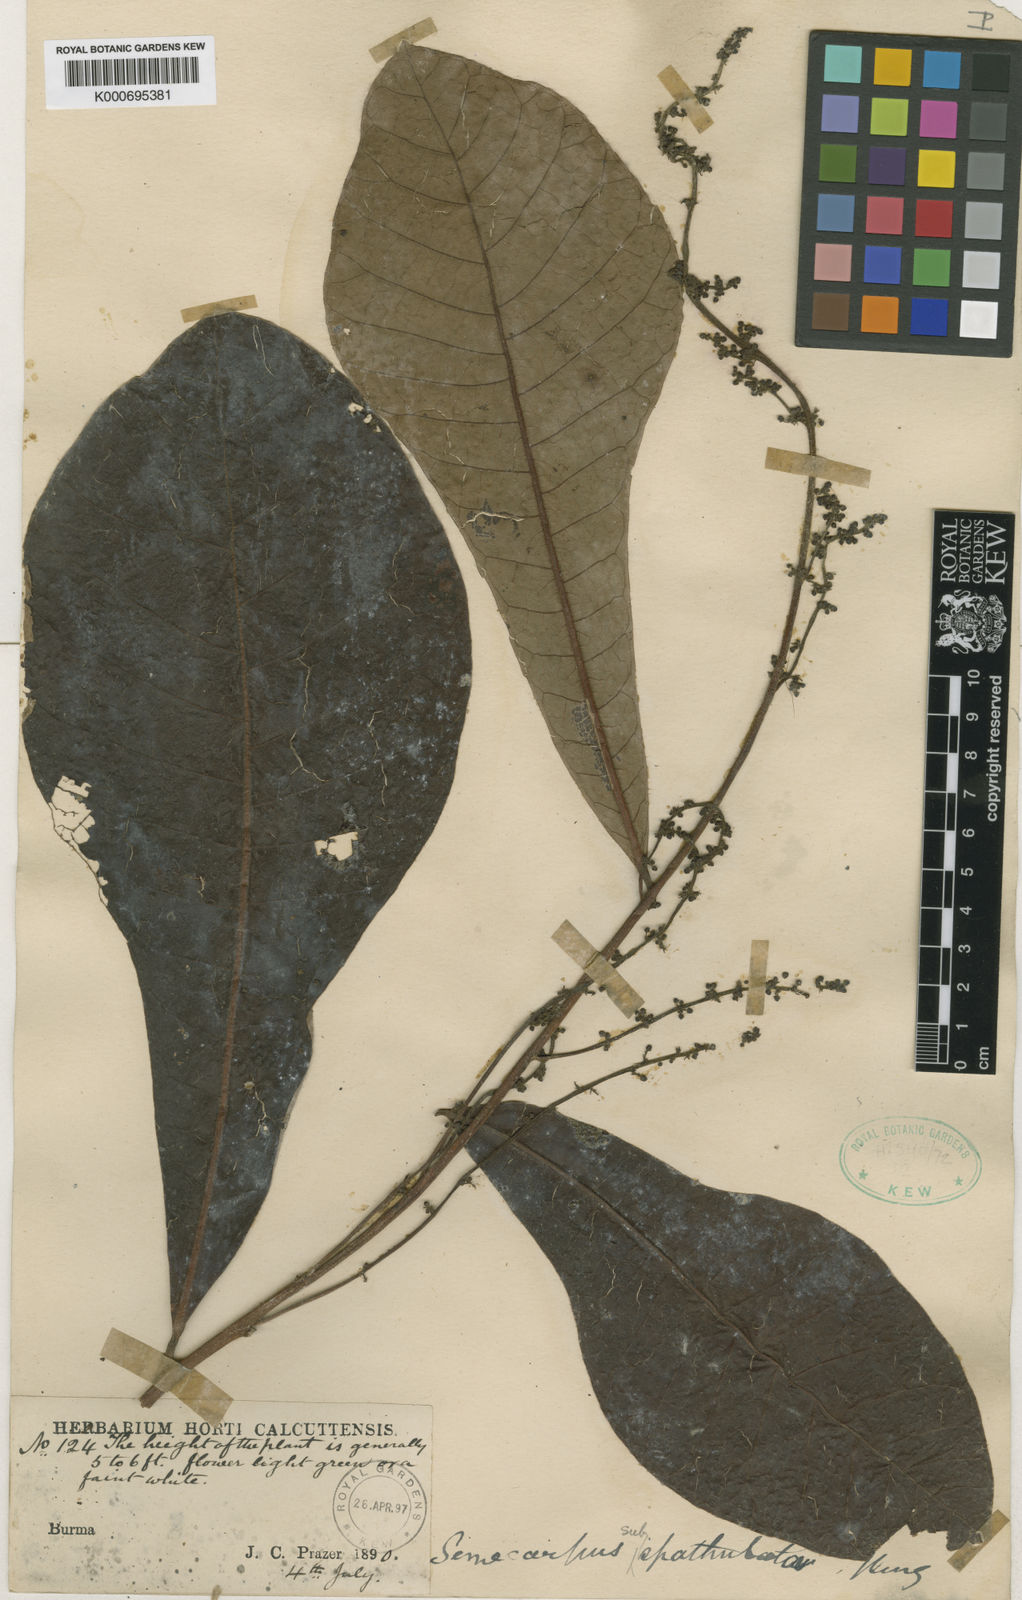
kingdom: Plantae
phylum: Tracheophyta
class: Magnoliopsida
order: Sapindales
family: Anacardiaceae
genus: Semecarpus
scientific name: Semecarpus subspathulatus
